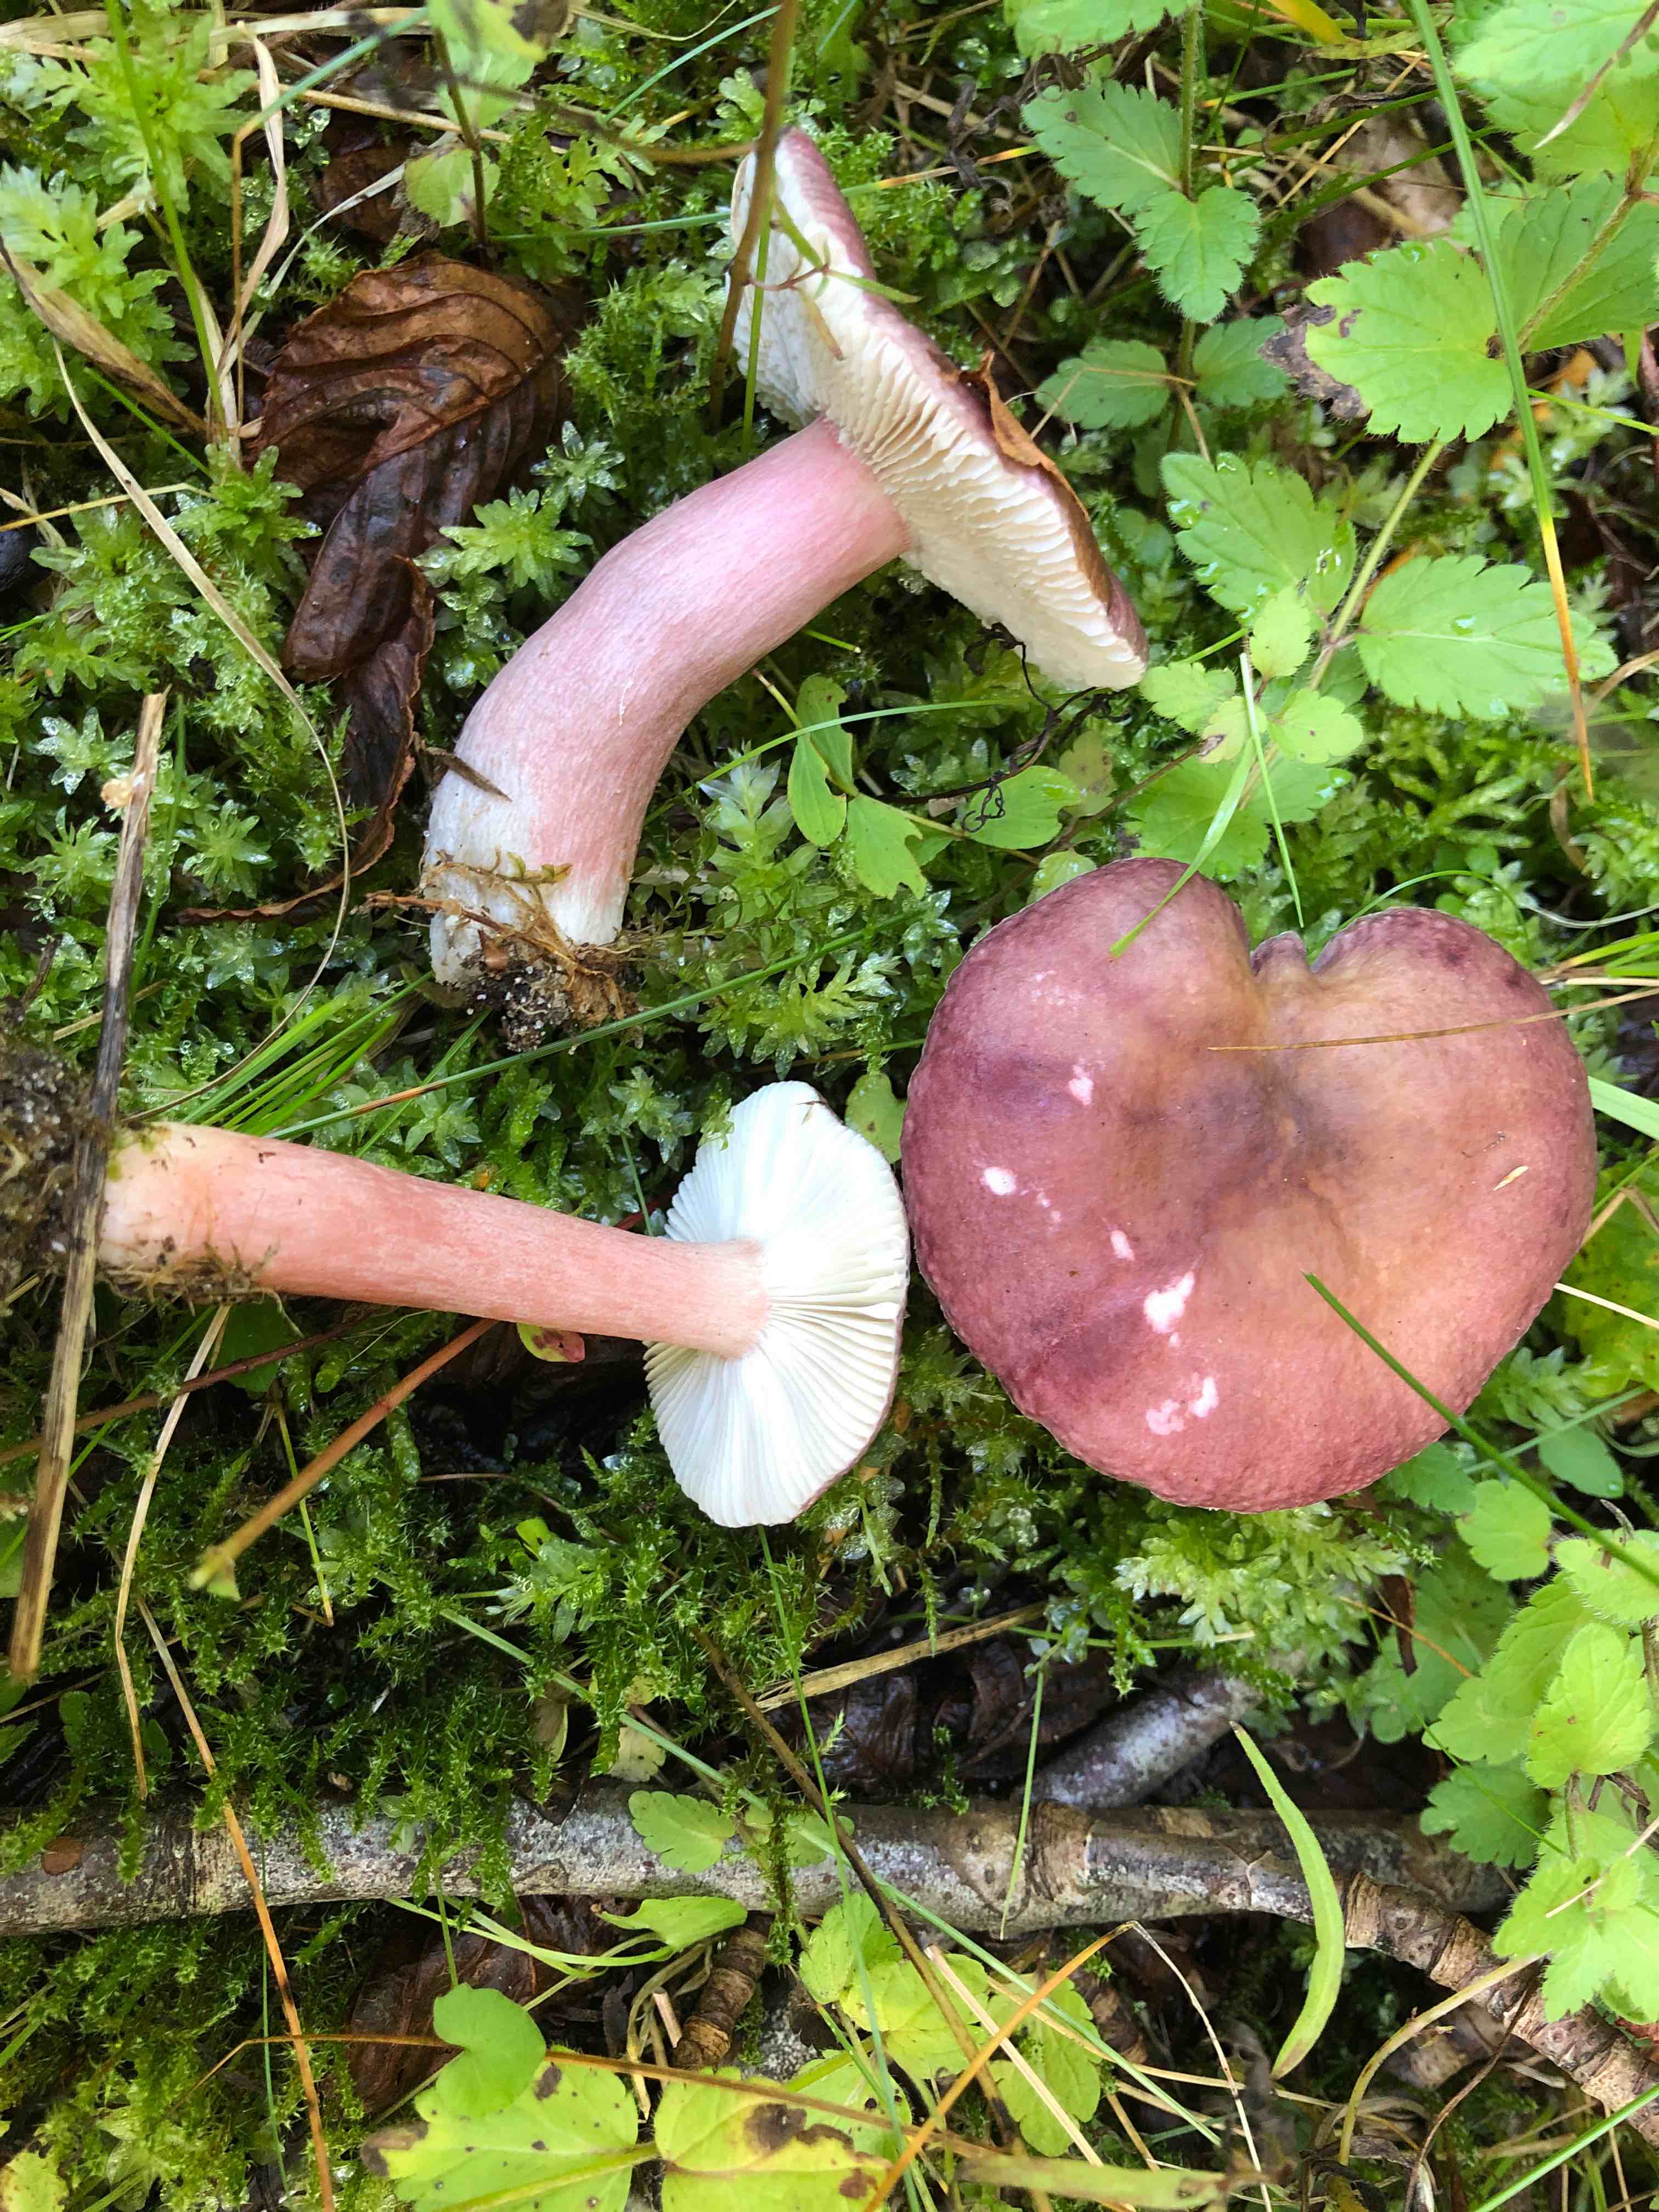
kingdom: Fungi
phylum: Basidiomycota
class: Agaricomycetes
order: Russulales
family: Russulaceae
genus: Russula
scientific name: Russula queletii
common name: Quélets skørhat
